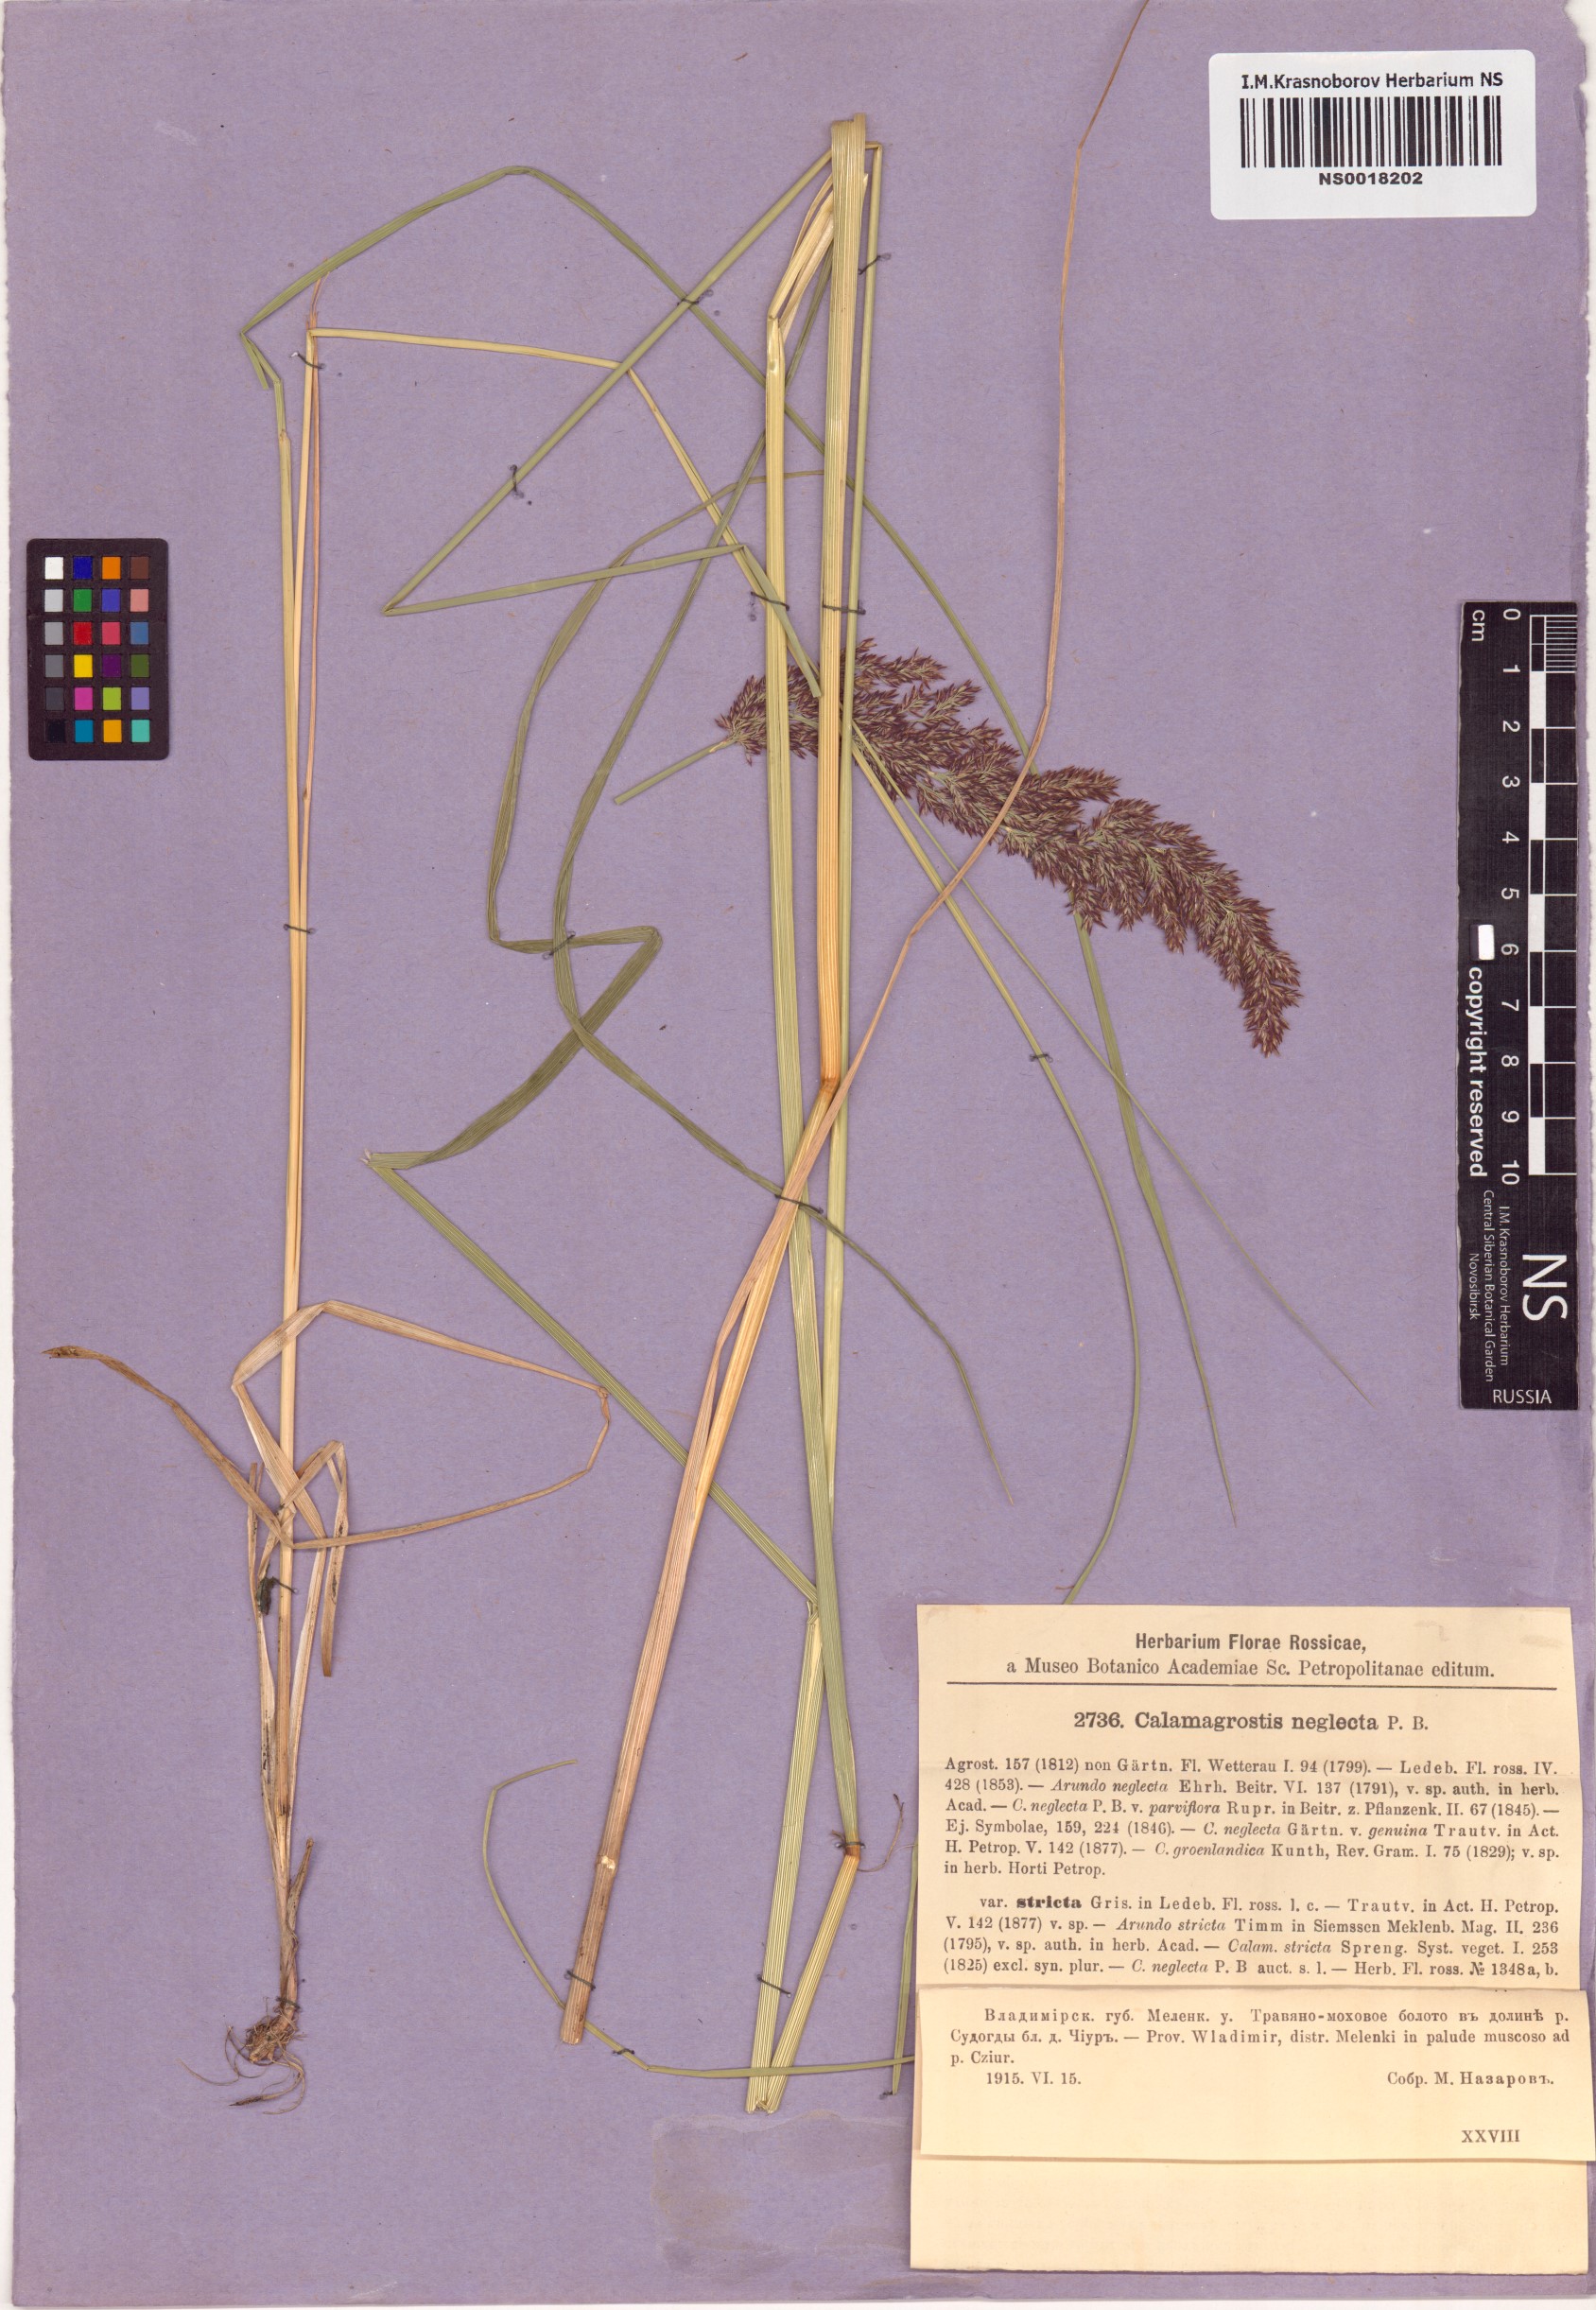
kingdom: Plantae
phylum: Tracheophyta
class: Liliopsida
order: Poales
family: Poaceae
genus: Achnatherum
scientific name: Achnatherum calamagrostis
